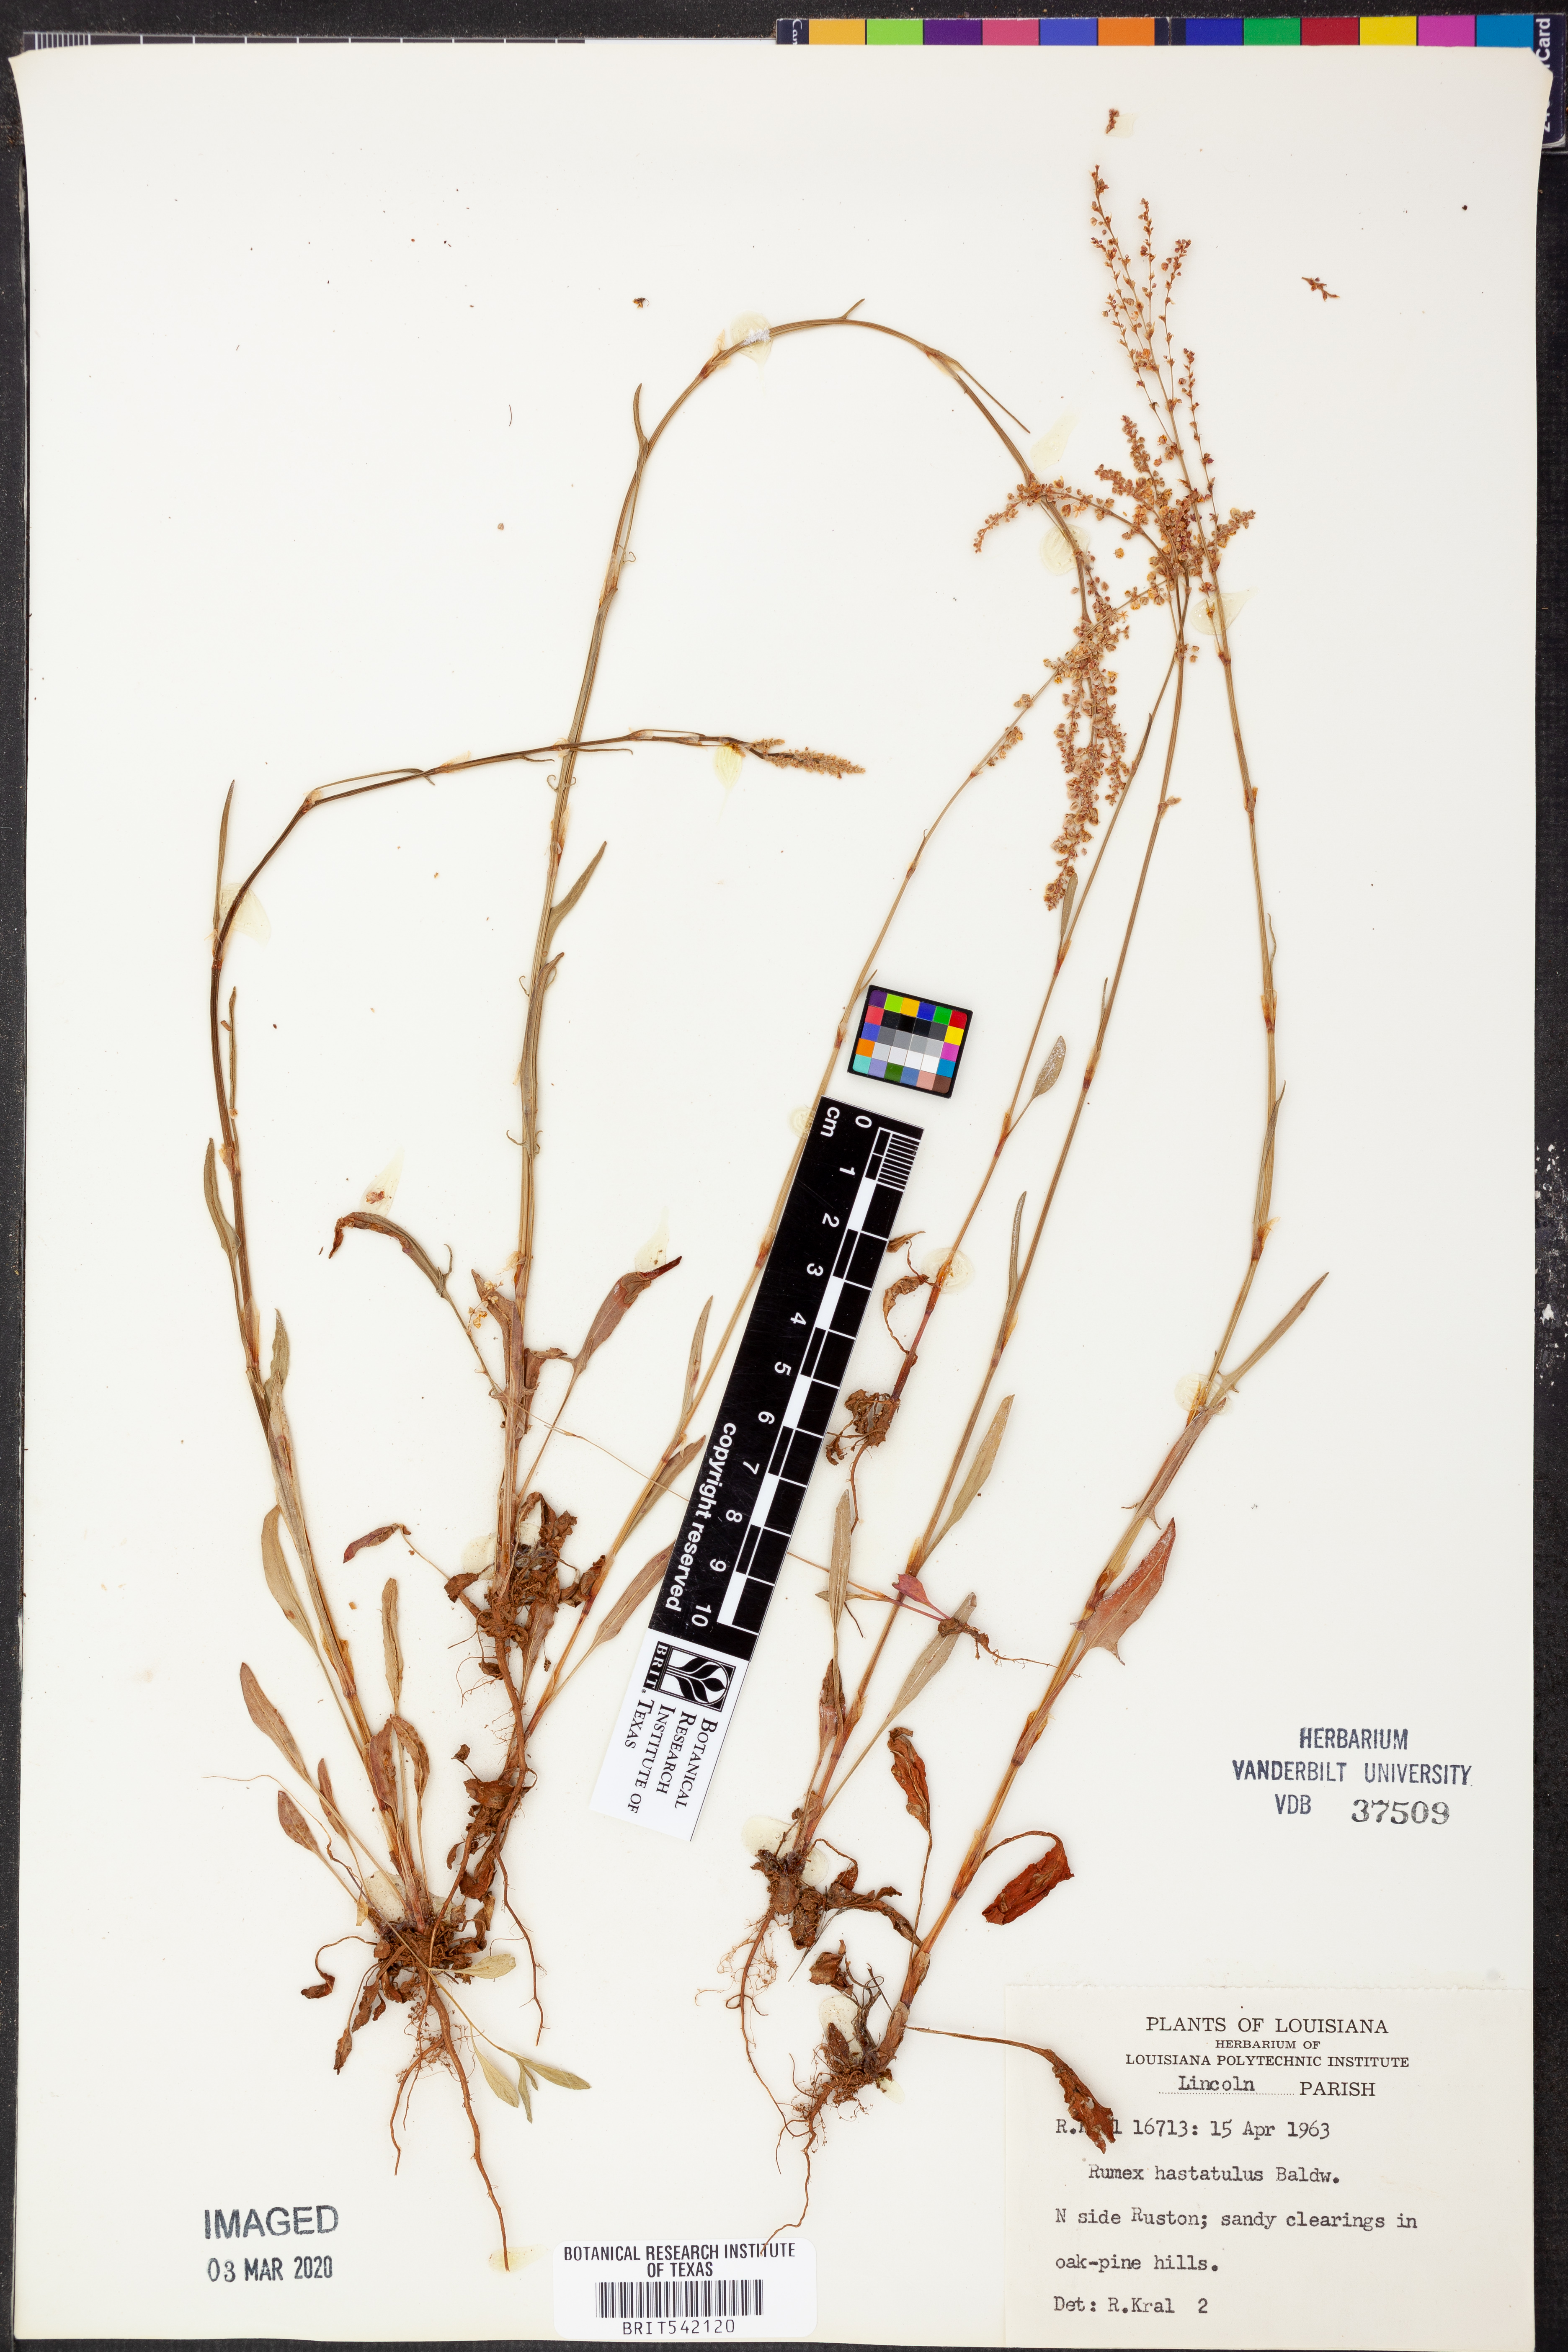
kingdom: Plantae
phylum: Tracheophyta
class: Magnoliopsida
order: Caryophyllales
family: Polygonaceae
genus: Rumex
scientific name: Rumex hastatulus
